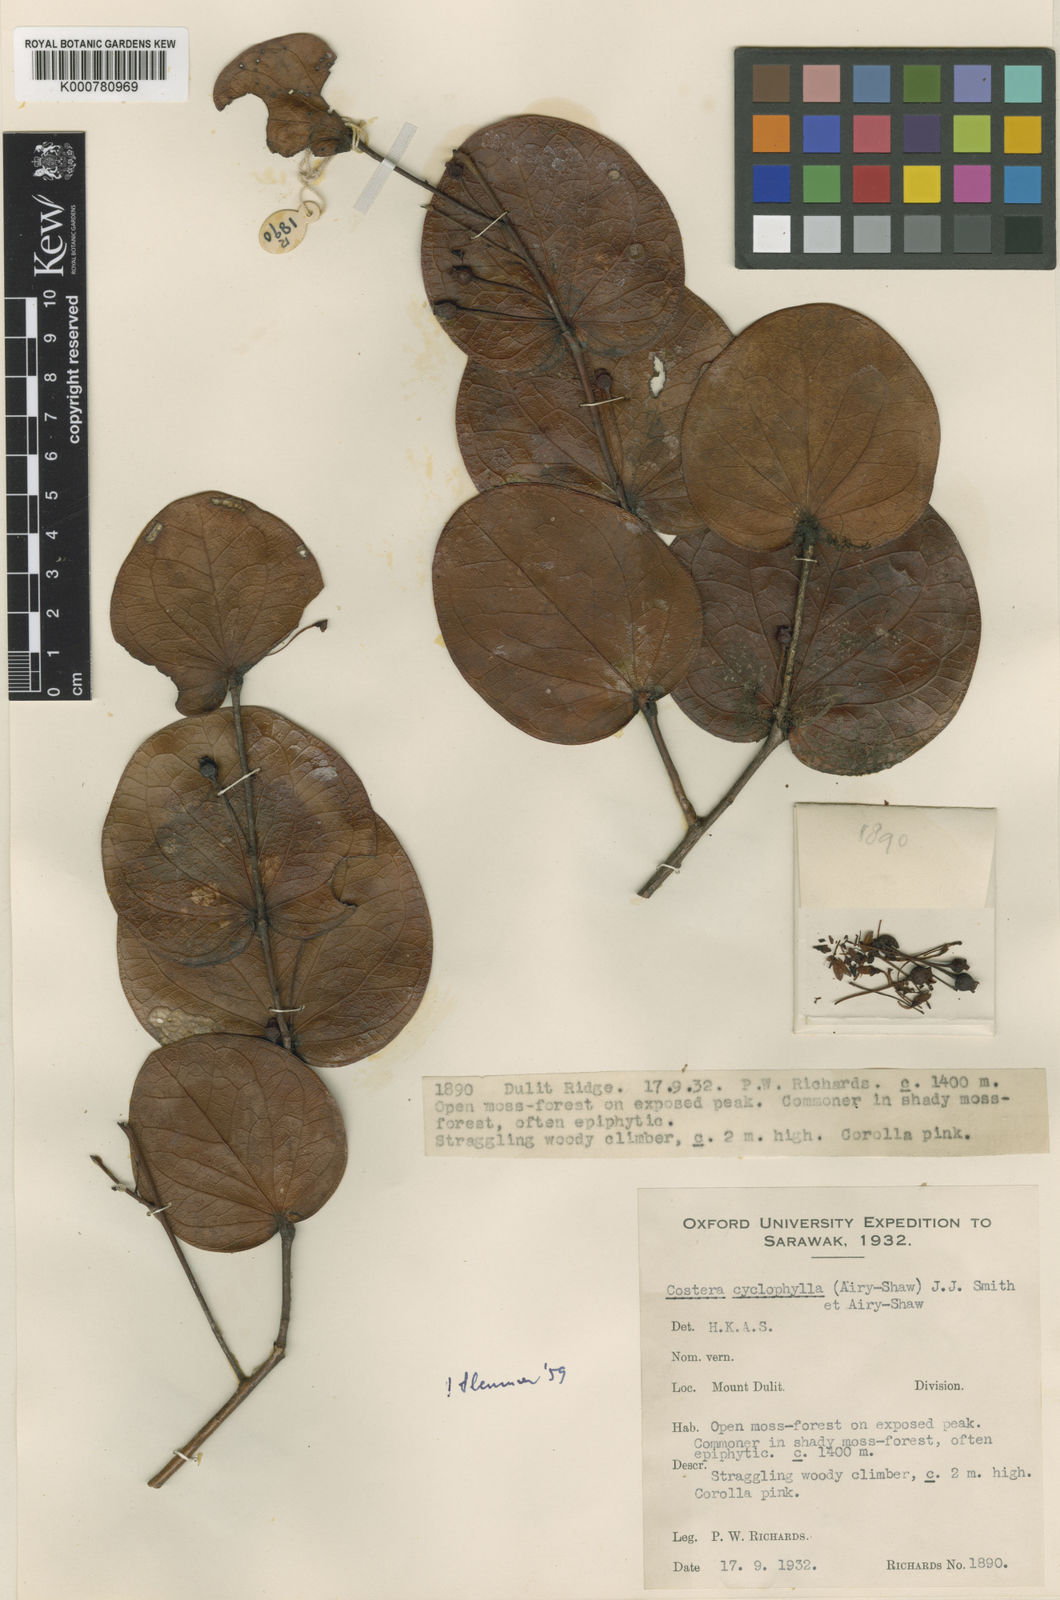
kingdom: Plantae
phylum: Tracheophyta
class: Magnoliopsida
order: Ericales
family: Ericaceae
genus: Costera
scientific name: Costera cyclophylla
